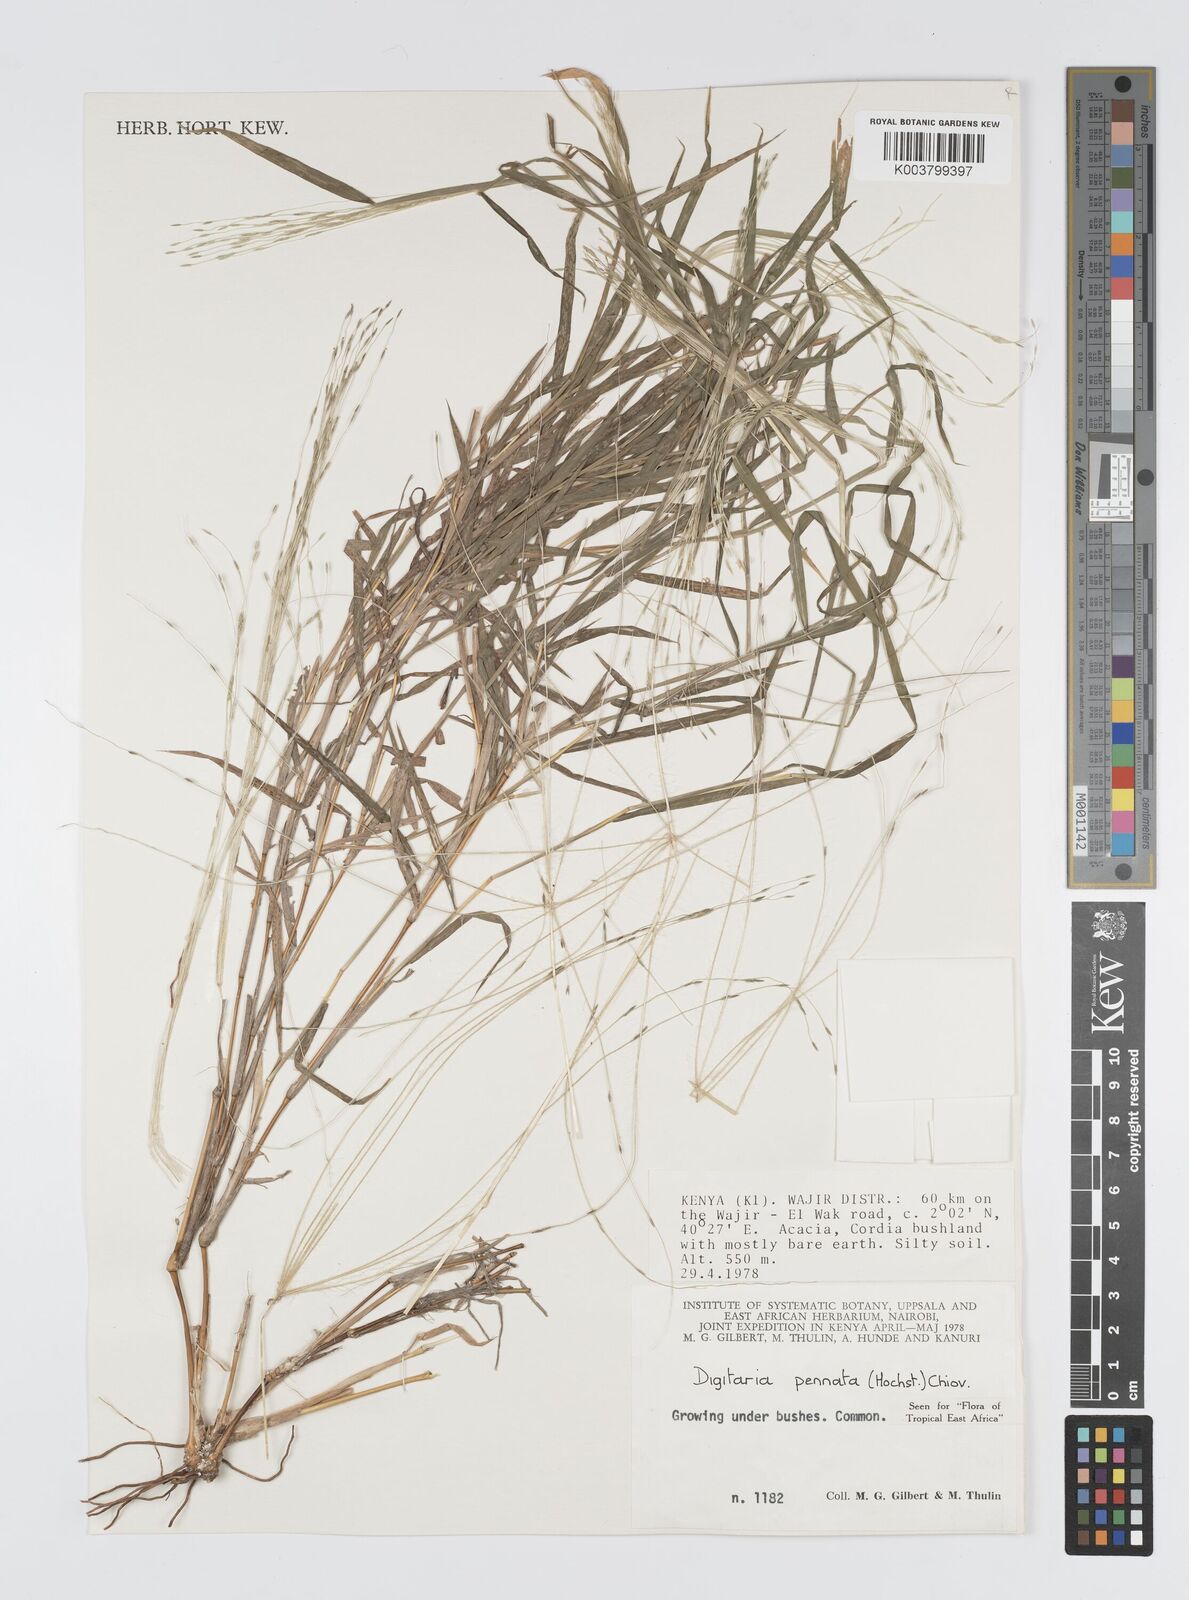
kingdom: Plantae
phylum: Tracheophyta
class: Liliopsida
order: Poales
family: Poaceae
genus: Digitaria
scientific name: Digitaria
